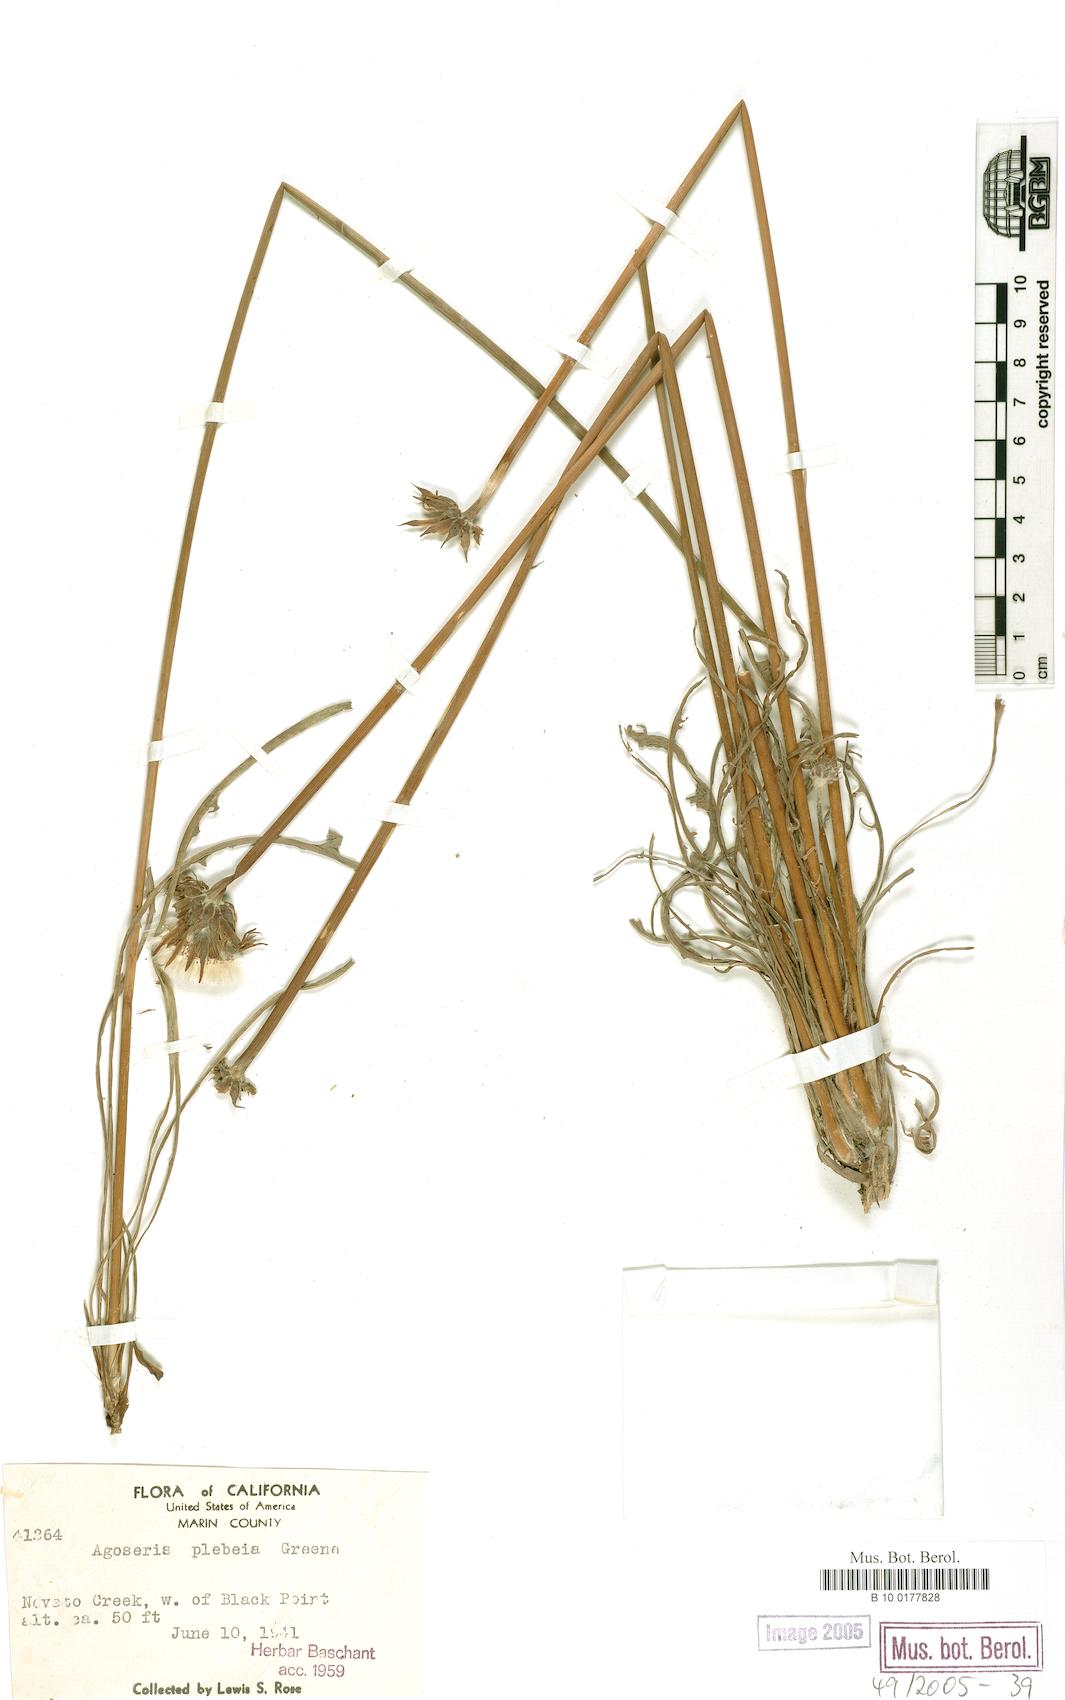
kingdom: Plantae
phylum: Tracheophyta
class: Magnoliopsida
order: Asterales
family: Asteraceae
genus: Agoseris
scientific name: Agoseris grandiflora
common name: Grassland agoseris
